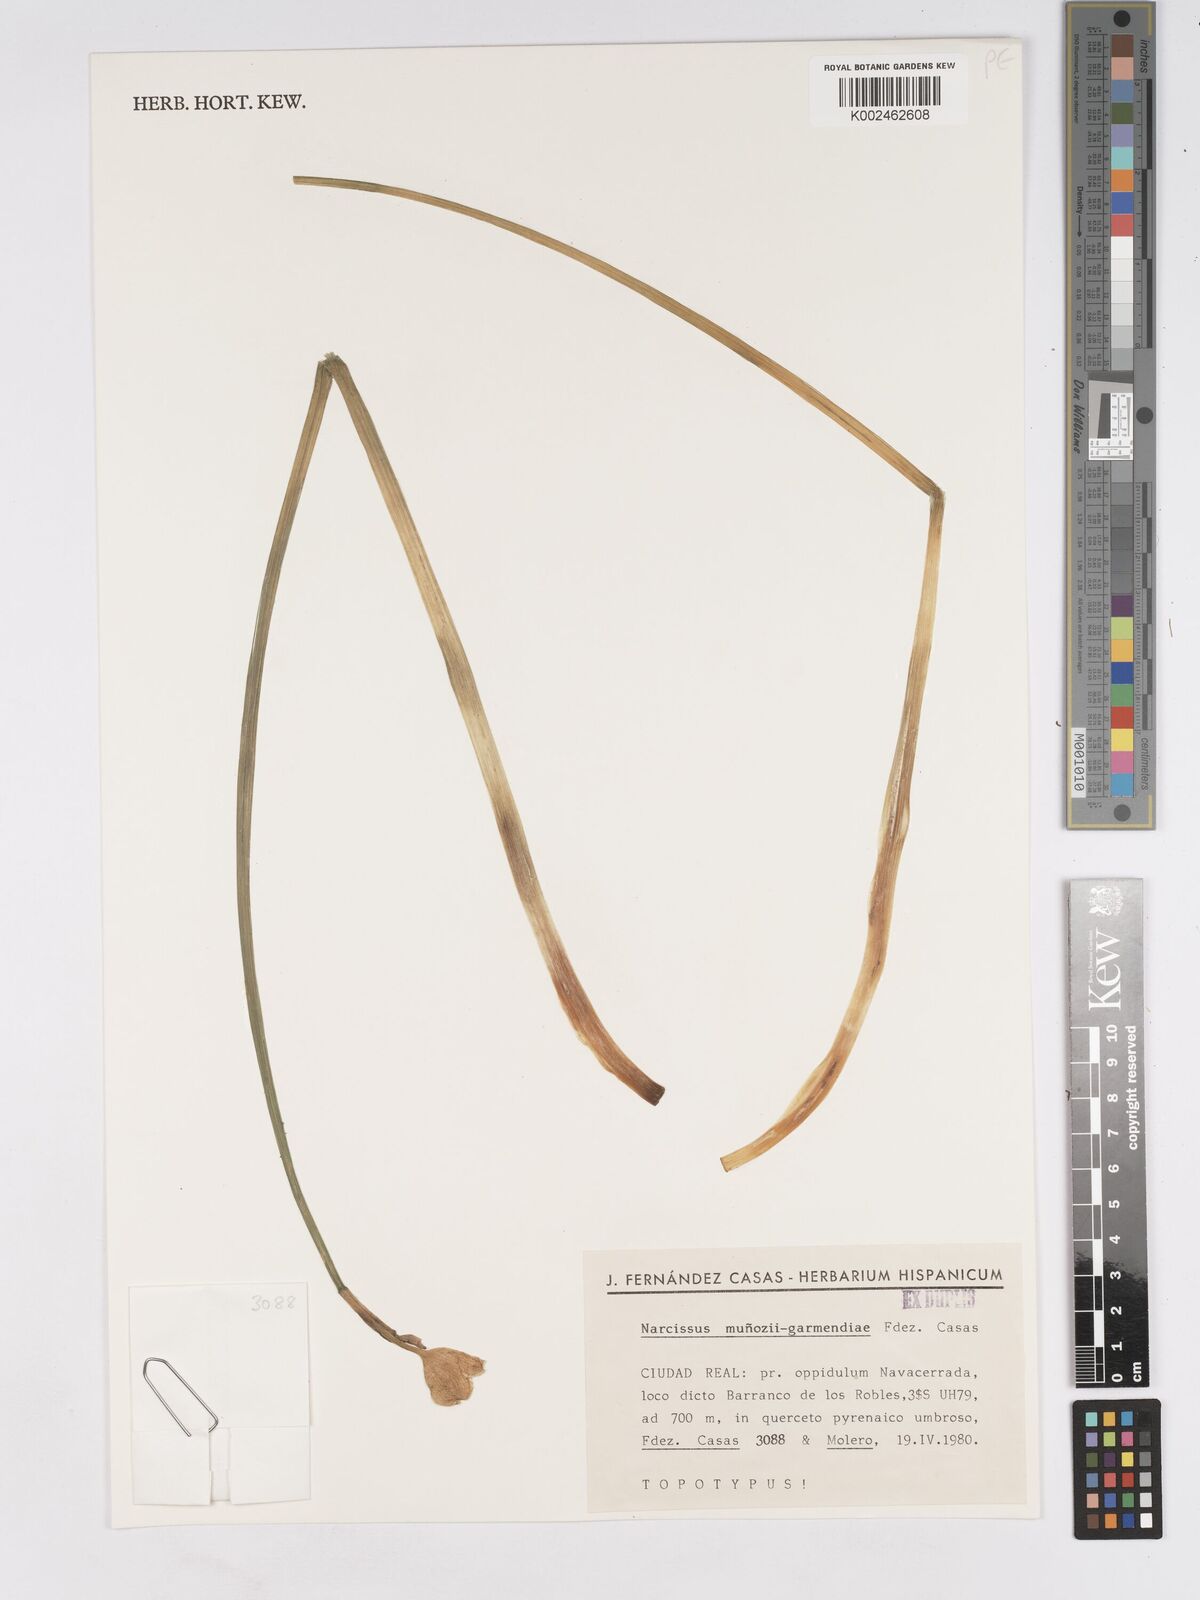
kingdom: Plantae
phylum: Tracheophyta
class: Liliopsida
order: Asparagales
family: Amaryllidaceae
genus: Narcissus
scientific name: Narcissus munozii-garmendiae
